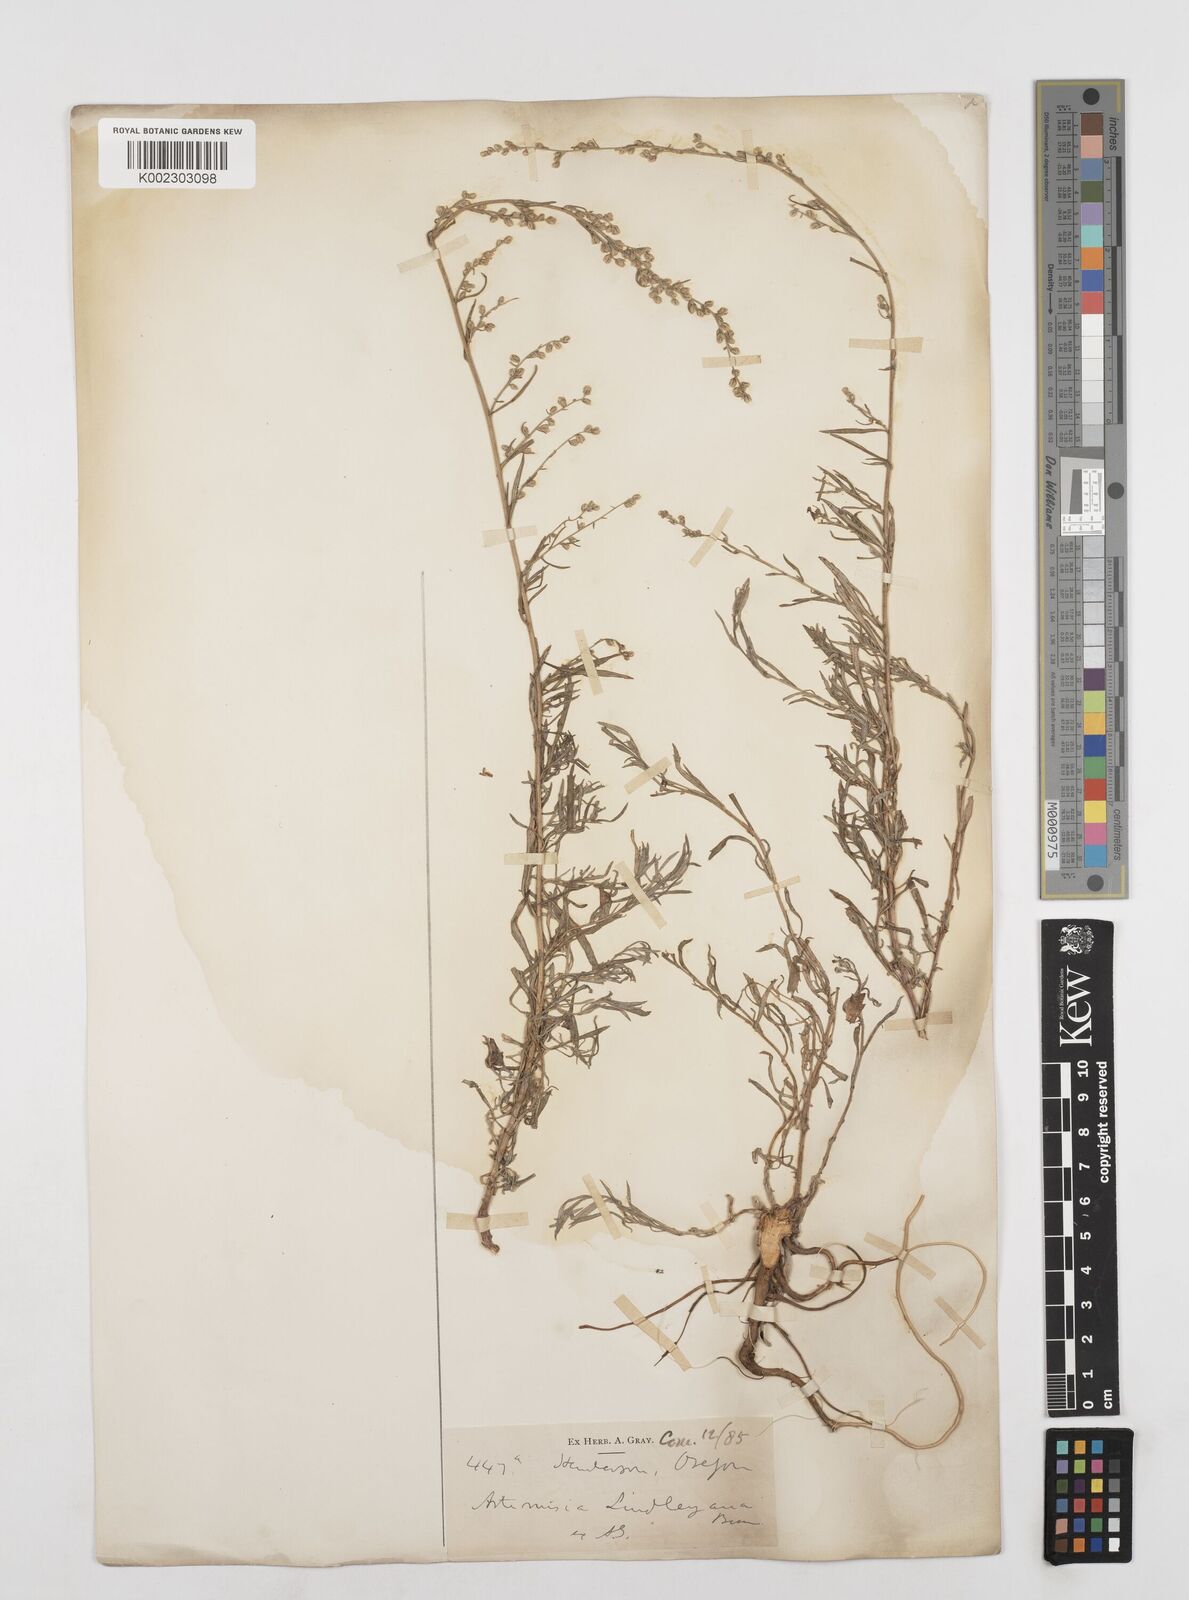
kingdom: Plantae
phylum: Tracheophyta
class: Magnoliopsida
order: Asterales
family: Asteraceae
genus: Artemisia
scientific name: Artemisia ludoviciana
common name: Western mugwort
